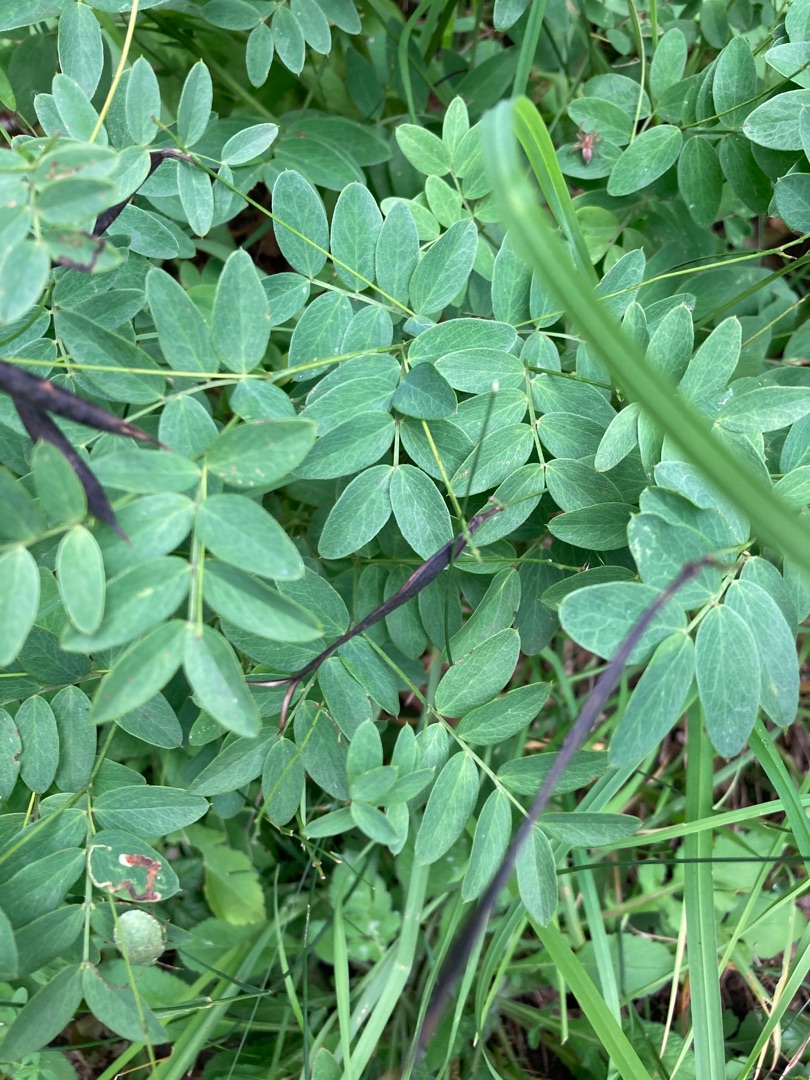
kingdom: Plantae
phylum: Tracheophyta
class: Magnoliopsida
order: Fabales
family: Fabaceae
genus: Lathyrus
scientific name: Lathyrus niger
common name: Sort fladbælg
